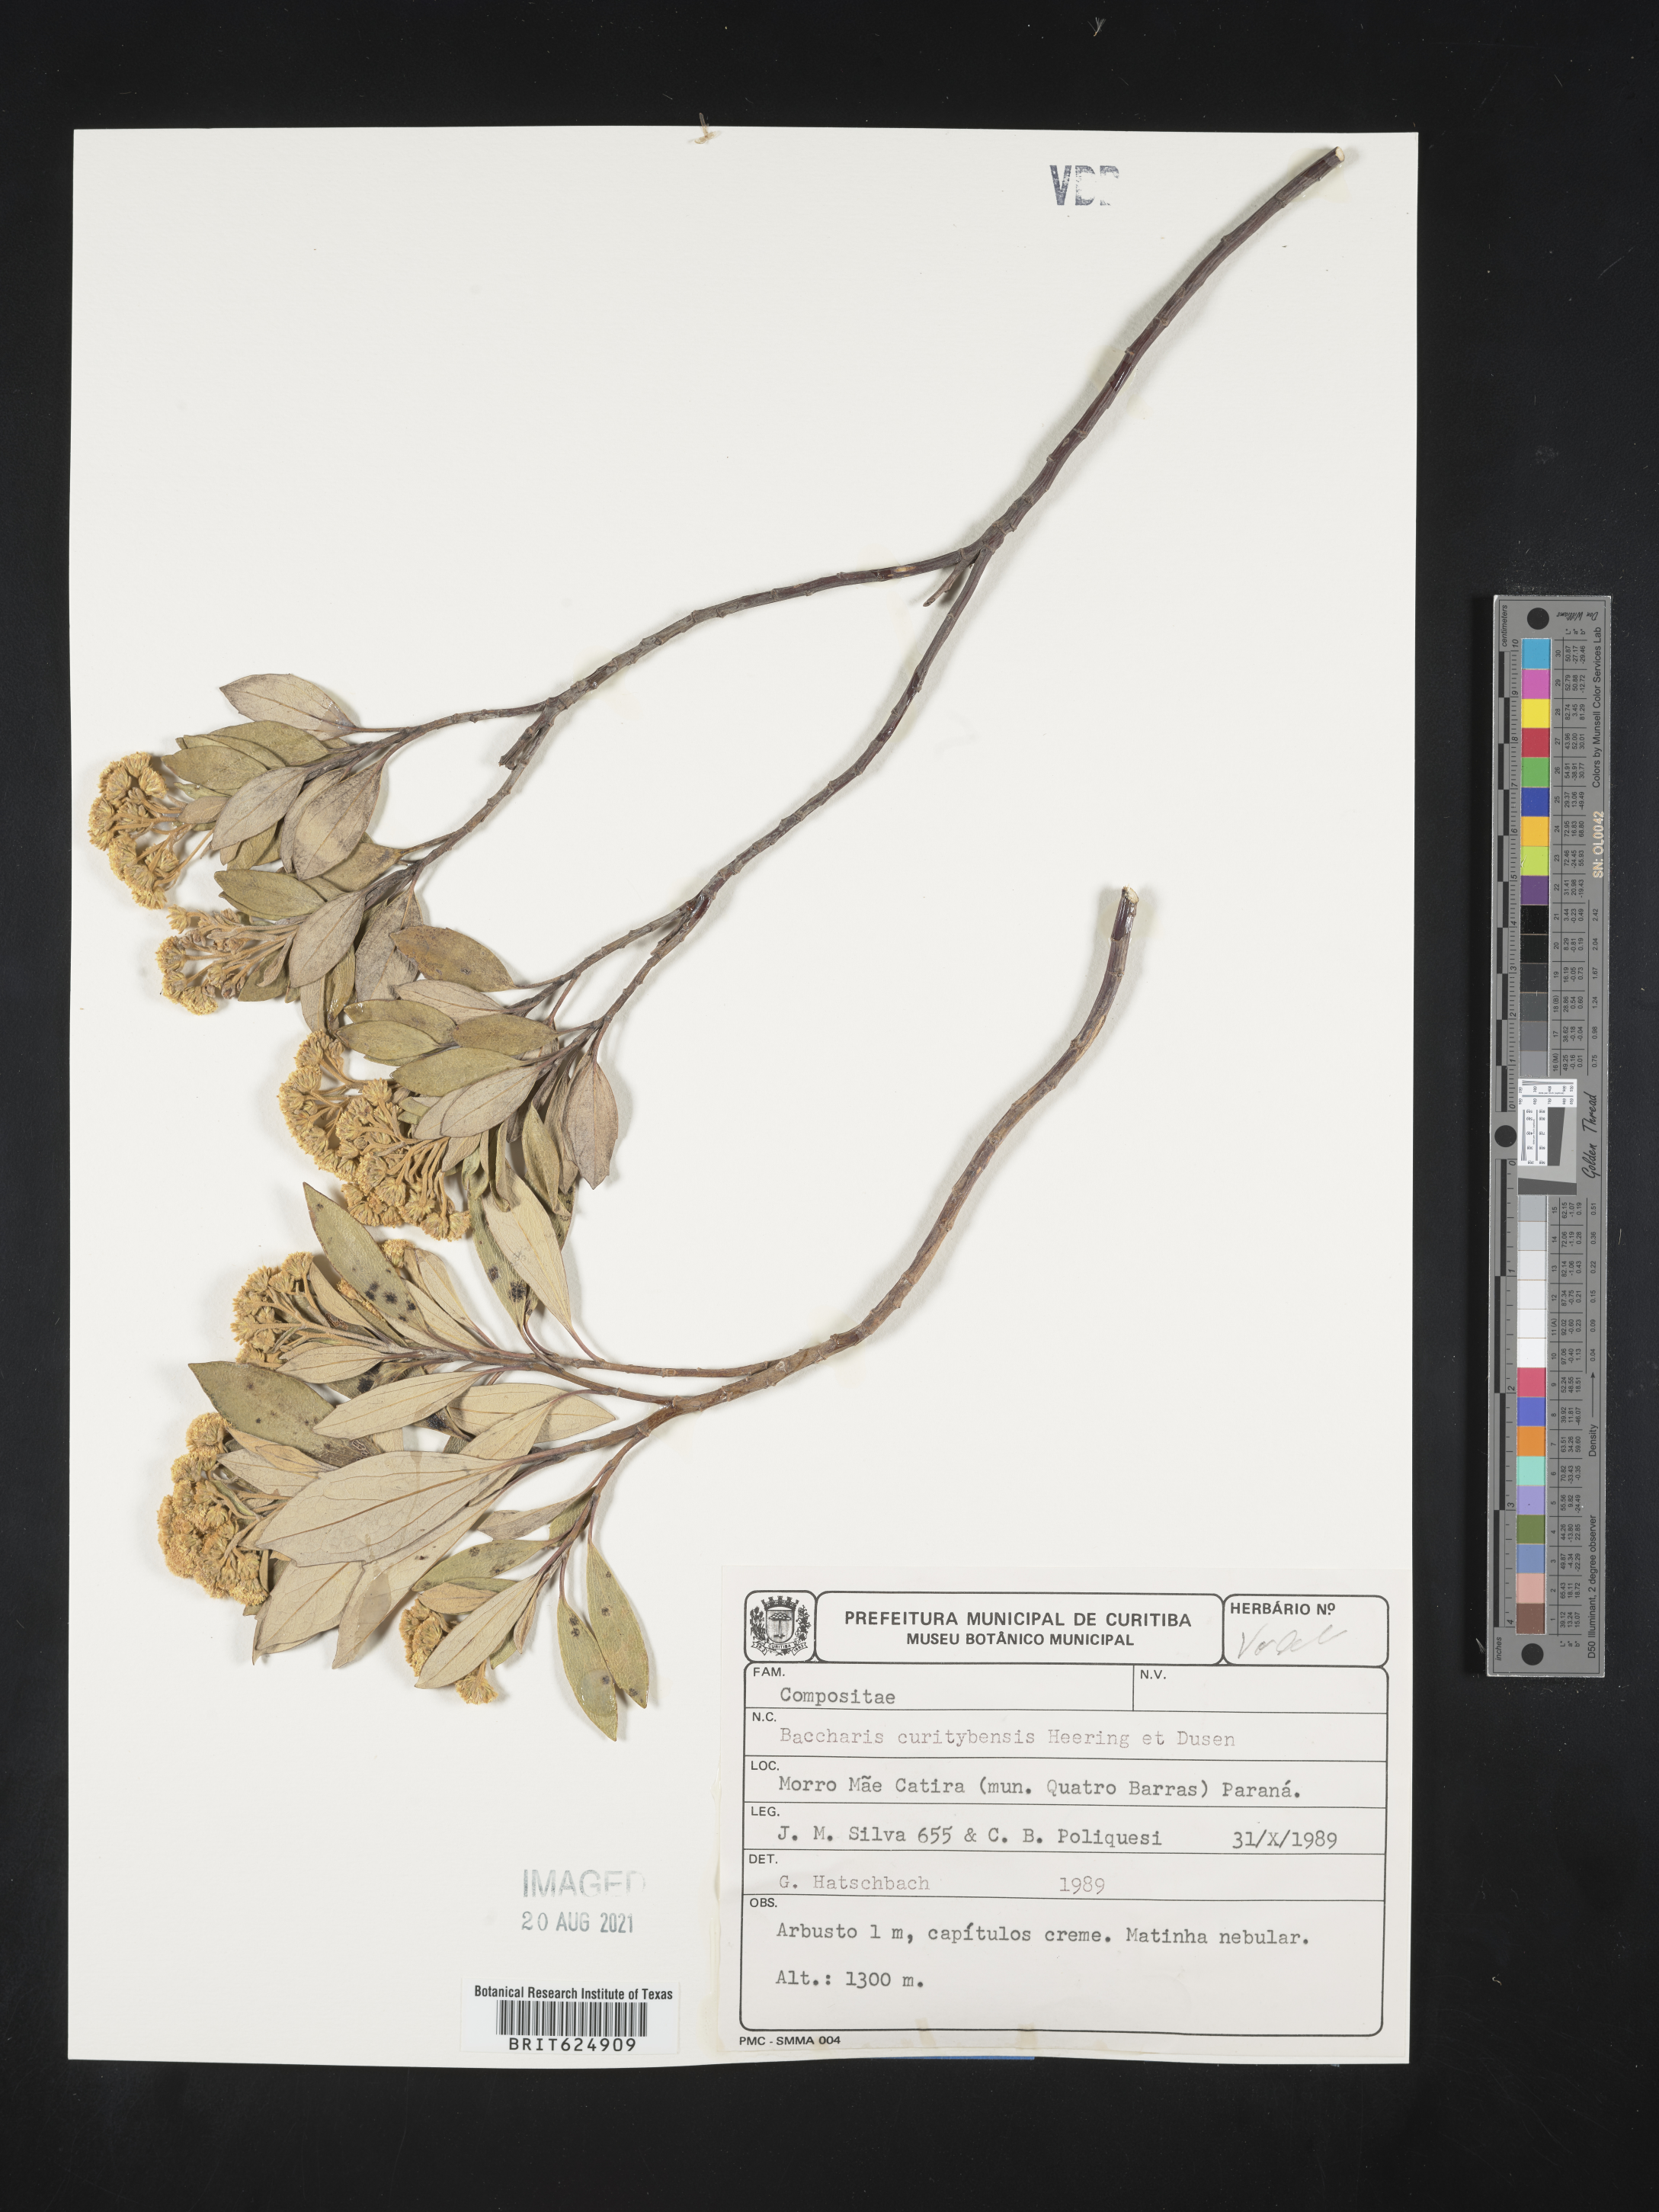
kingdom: Plantae
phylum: Tracheophyta
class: Magnoliopsida
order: Asterales
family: Asteraceae
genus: Baccharis
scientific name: Baccharis curitybensis
